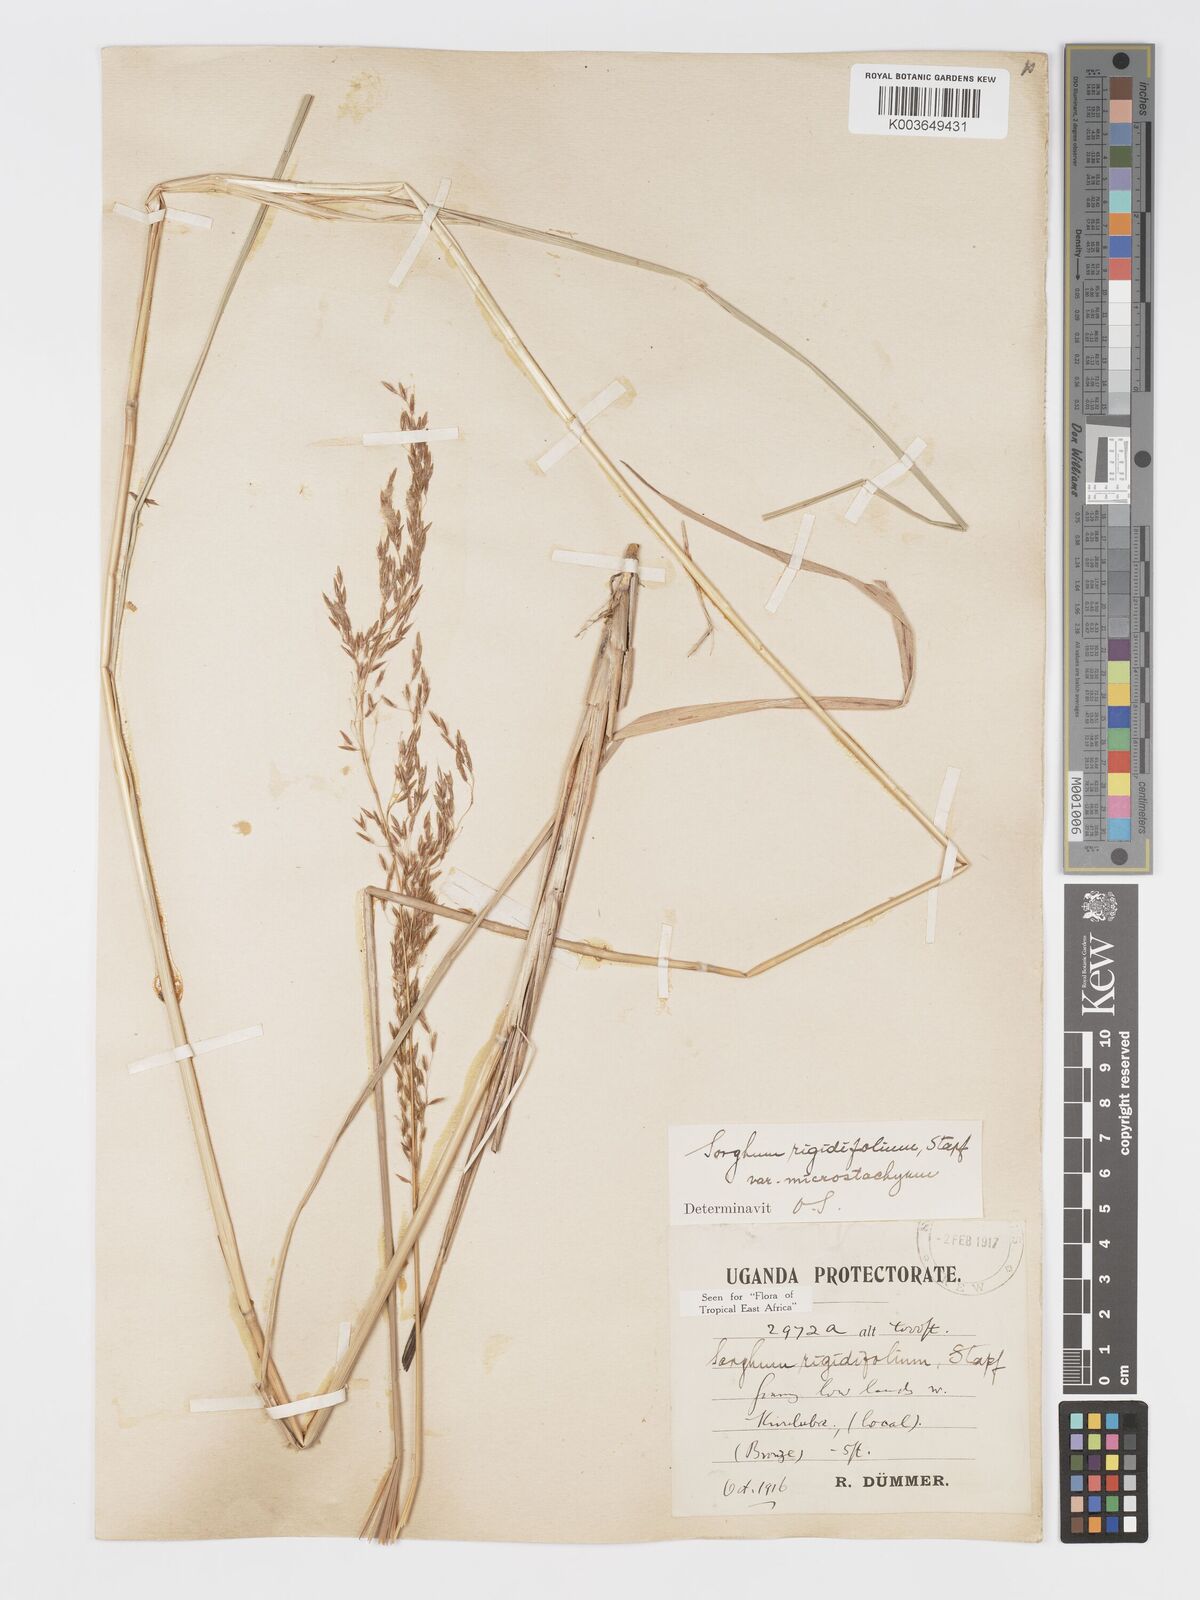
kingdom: Plantae
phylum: Tracheophyta
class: Liliopsida
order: Poales
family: Poaceae
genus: Sorghastrum
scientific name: Sorghastrum stipoides
